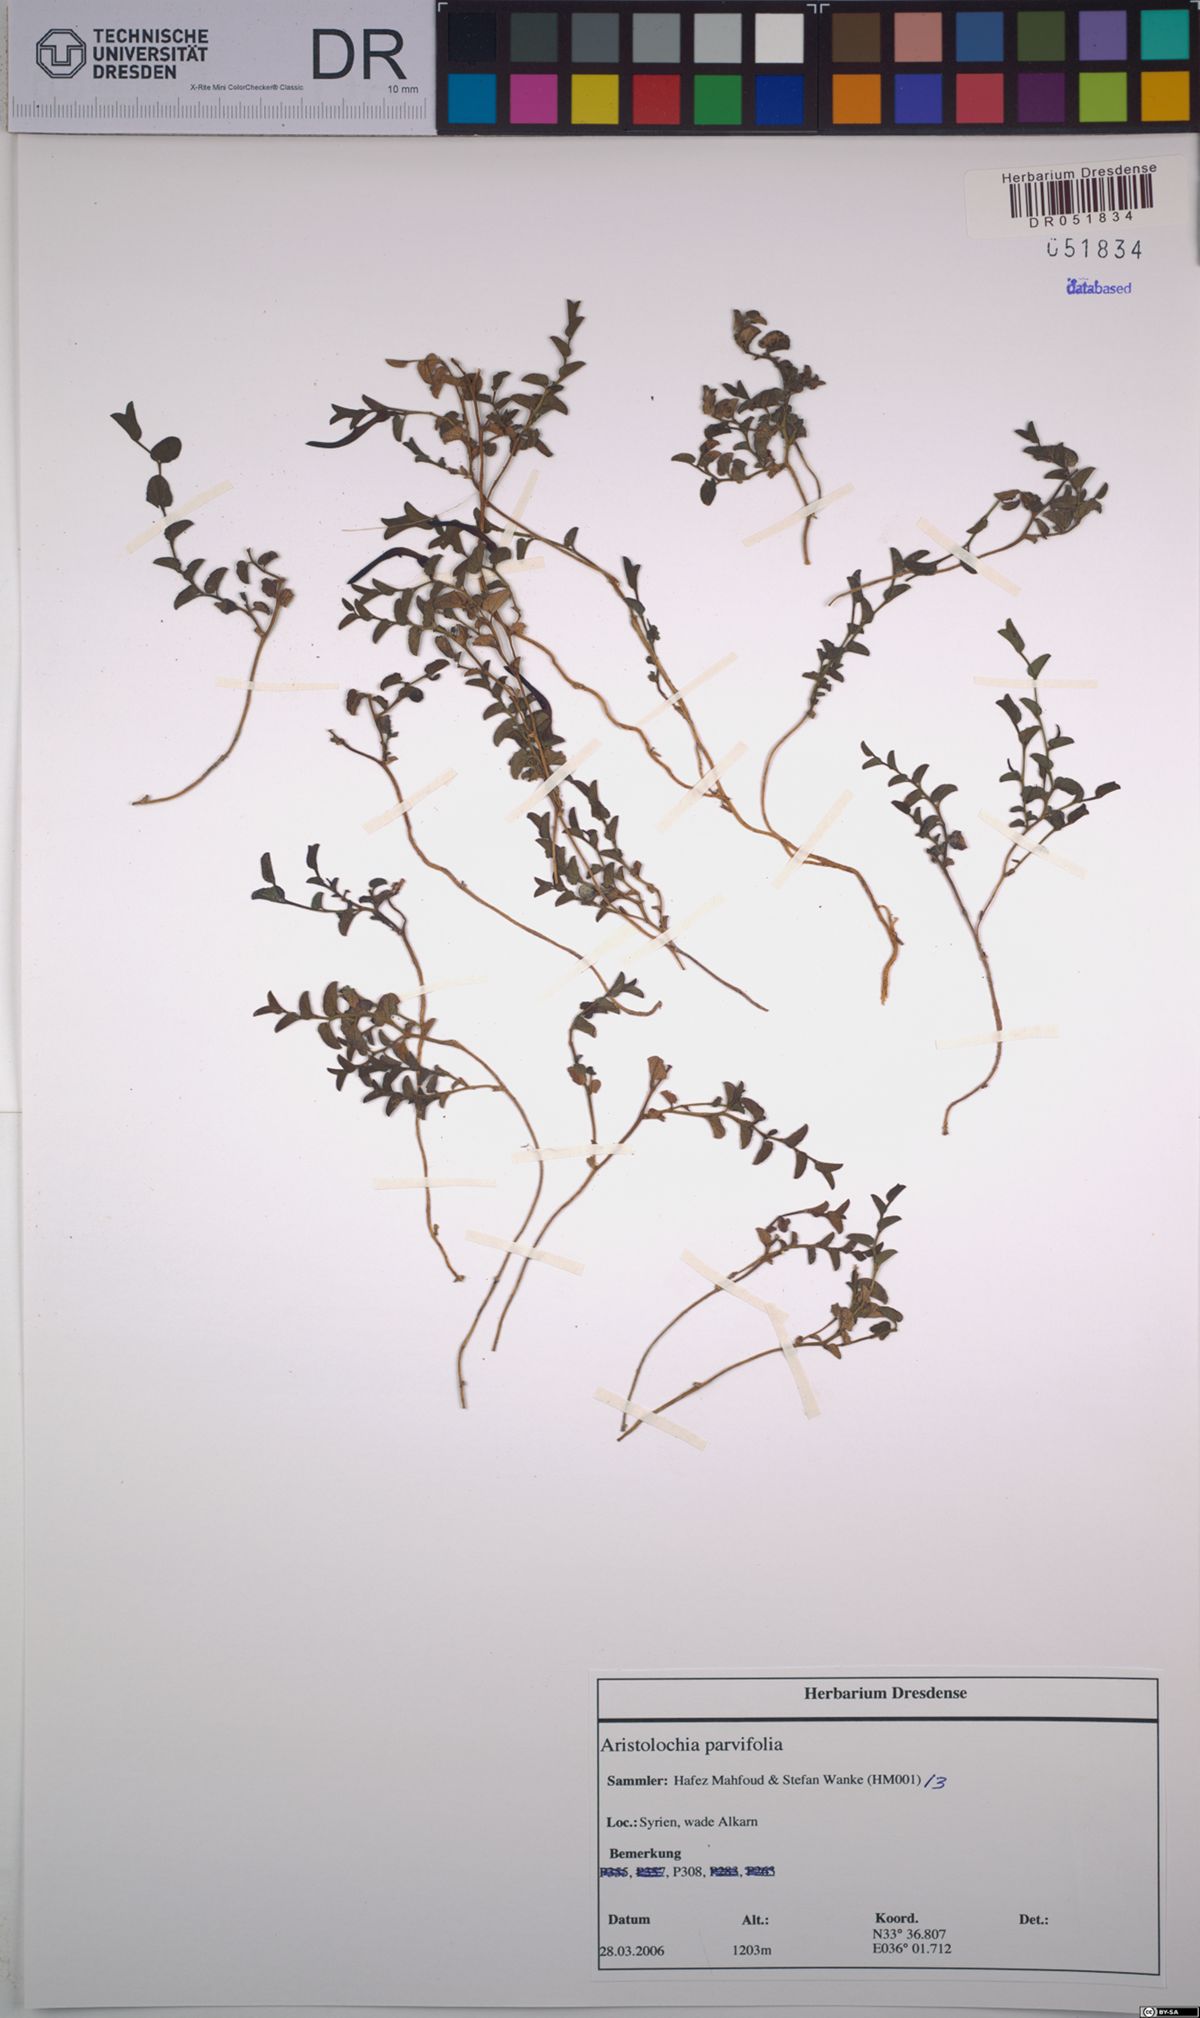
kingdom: Plantae
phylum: Tracheophyta
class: Magnoliopsida
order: Piperales
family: Aristolochiaceae
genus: Aristolochia
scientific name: Aristolochia parvifolia
